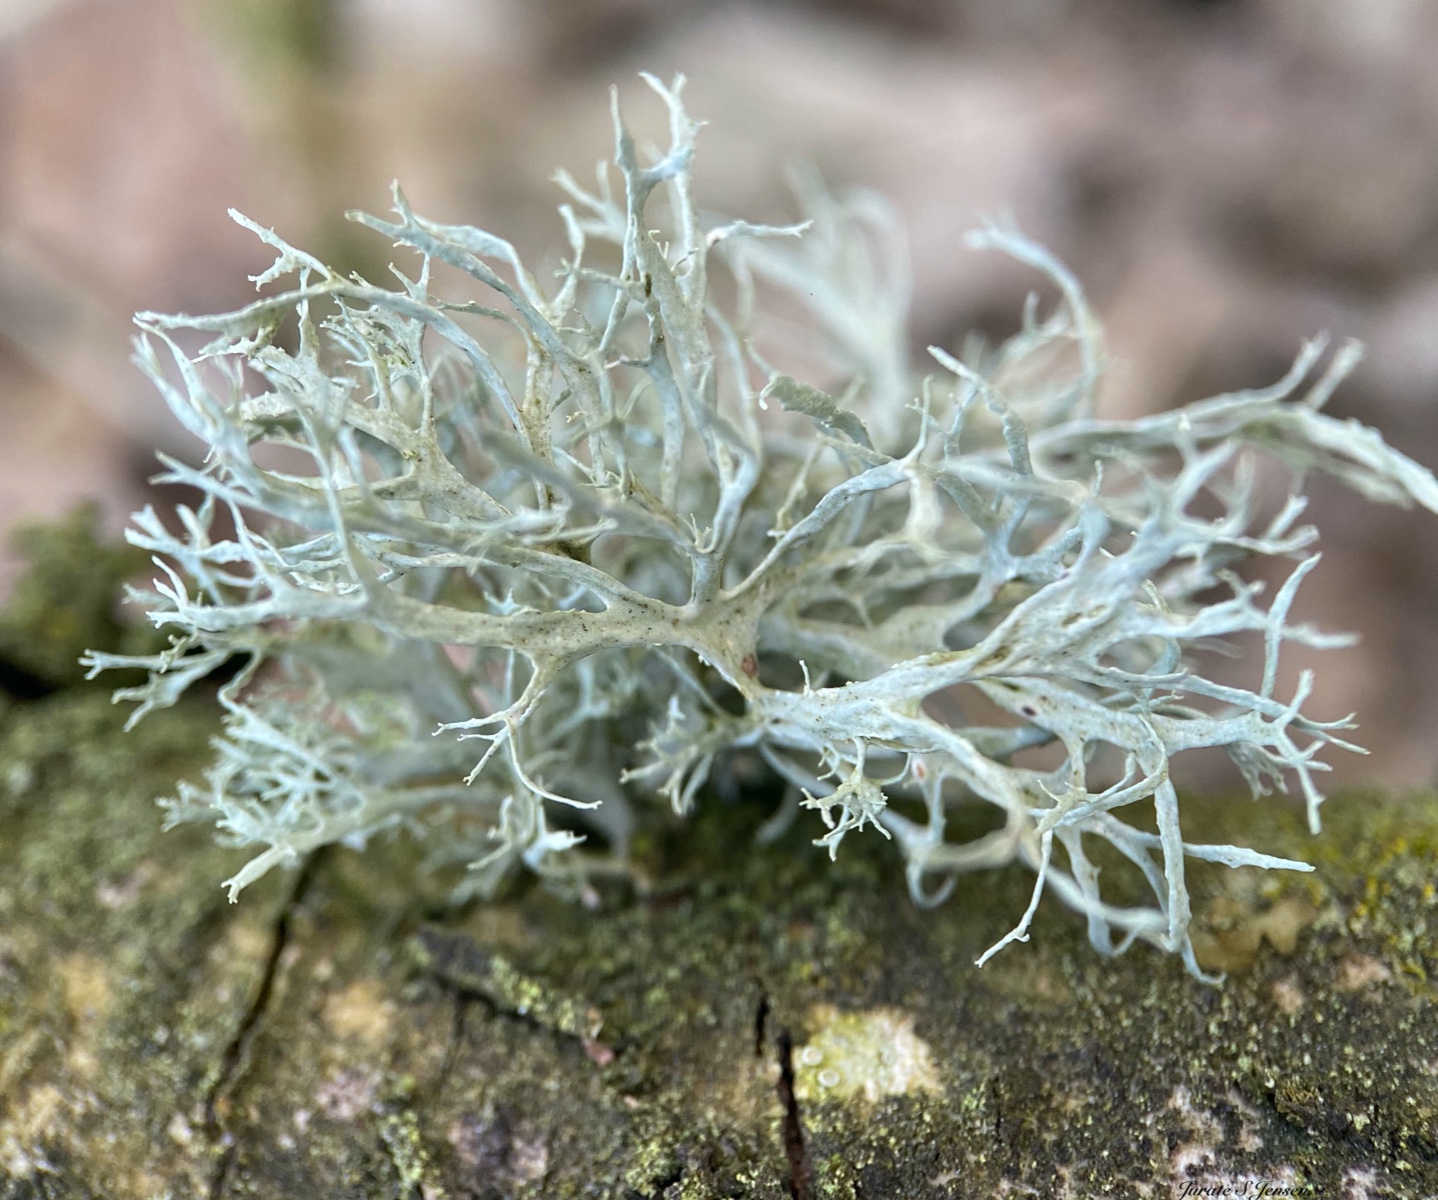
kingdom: Fungi
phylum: Ascomycota
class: Lecanoromycetes
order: Lecanorales
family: Ramalinaceae
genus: Ramalina
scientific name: Ramalina farinacea
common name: melet grenlav
